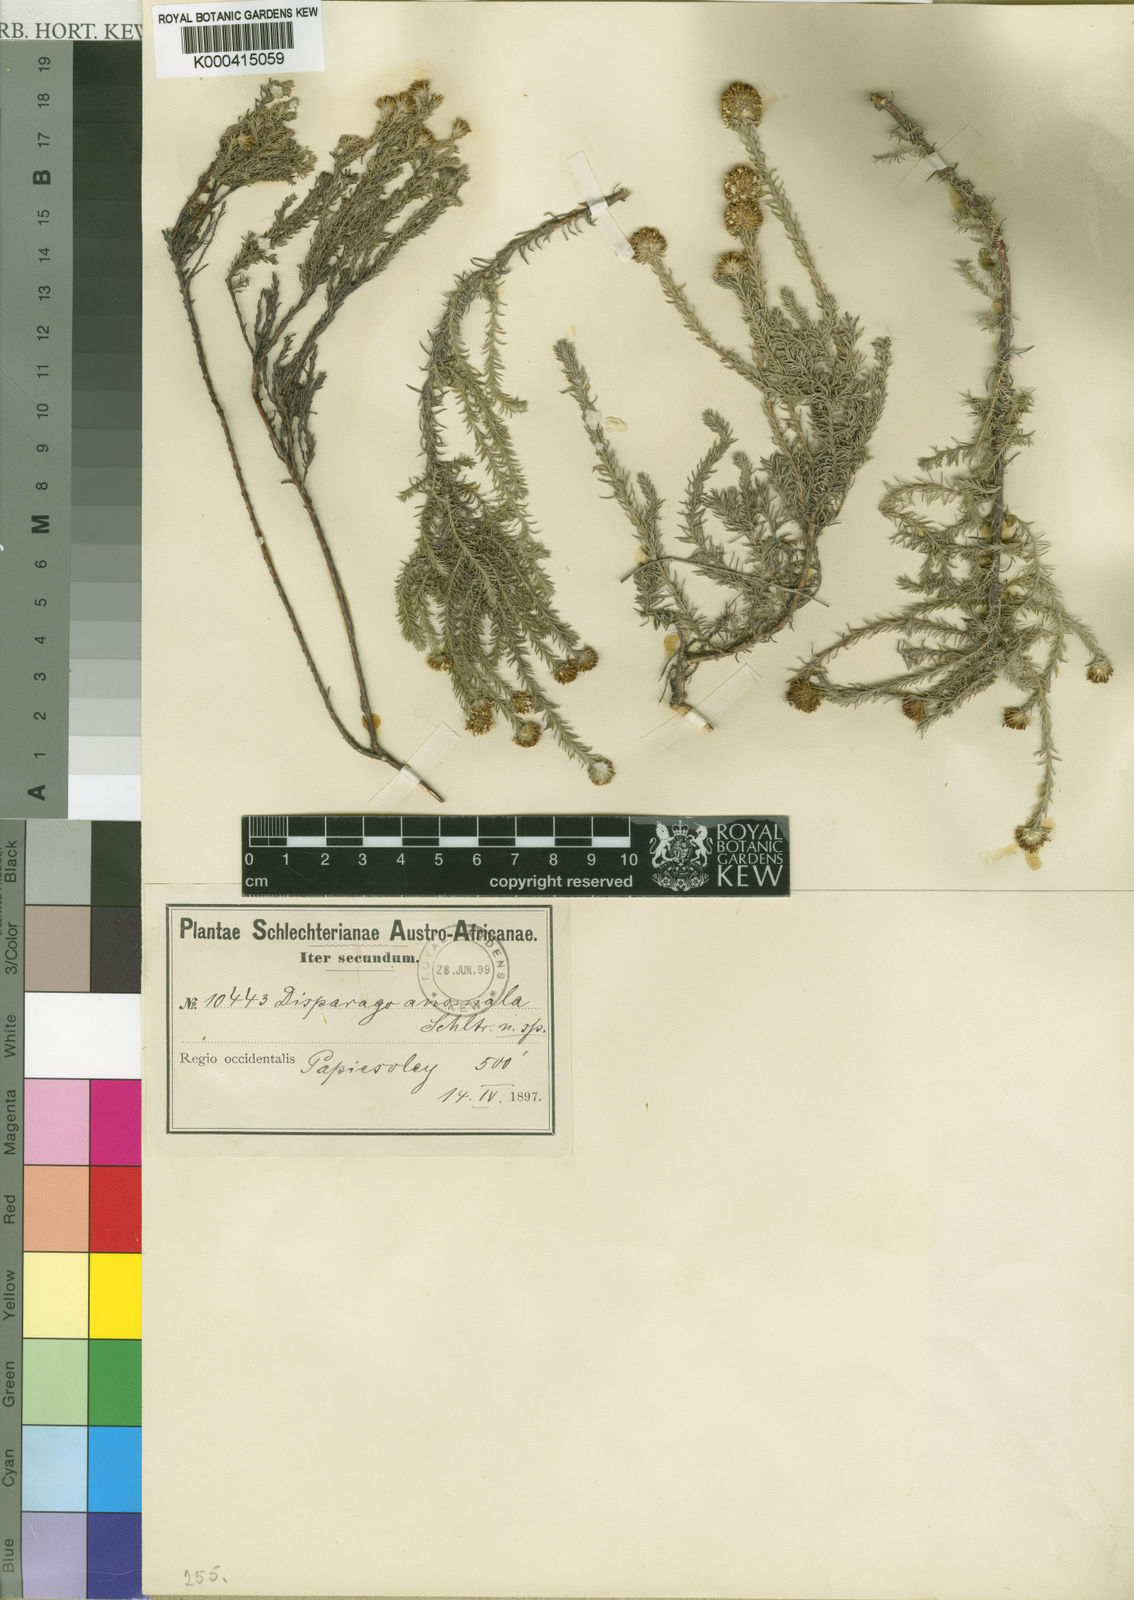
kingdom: Plantae
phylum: Tracheophyta
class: Magnoliopsida
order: Asterales
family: Asteraceae
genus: Disparago
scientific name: Disparago
